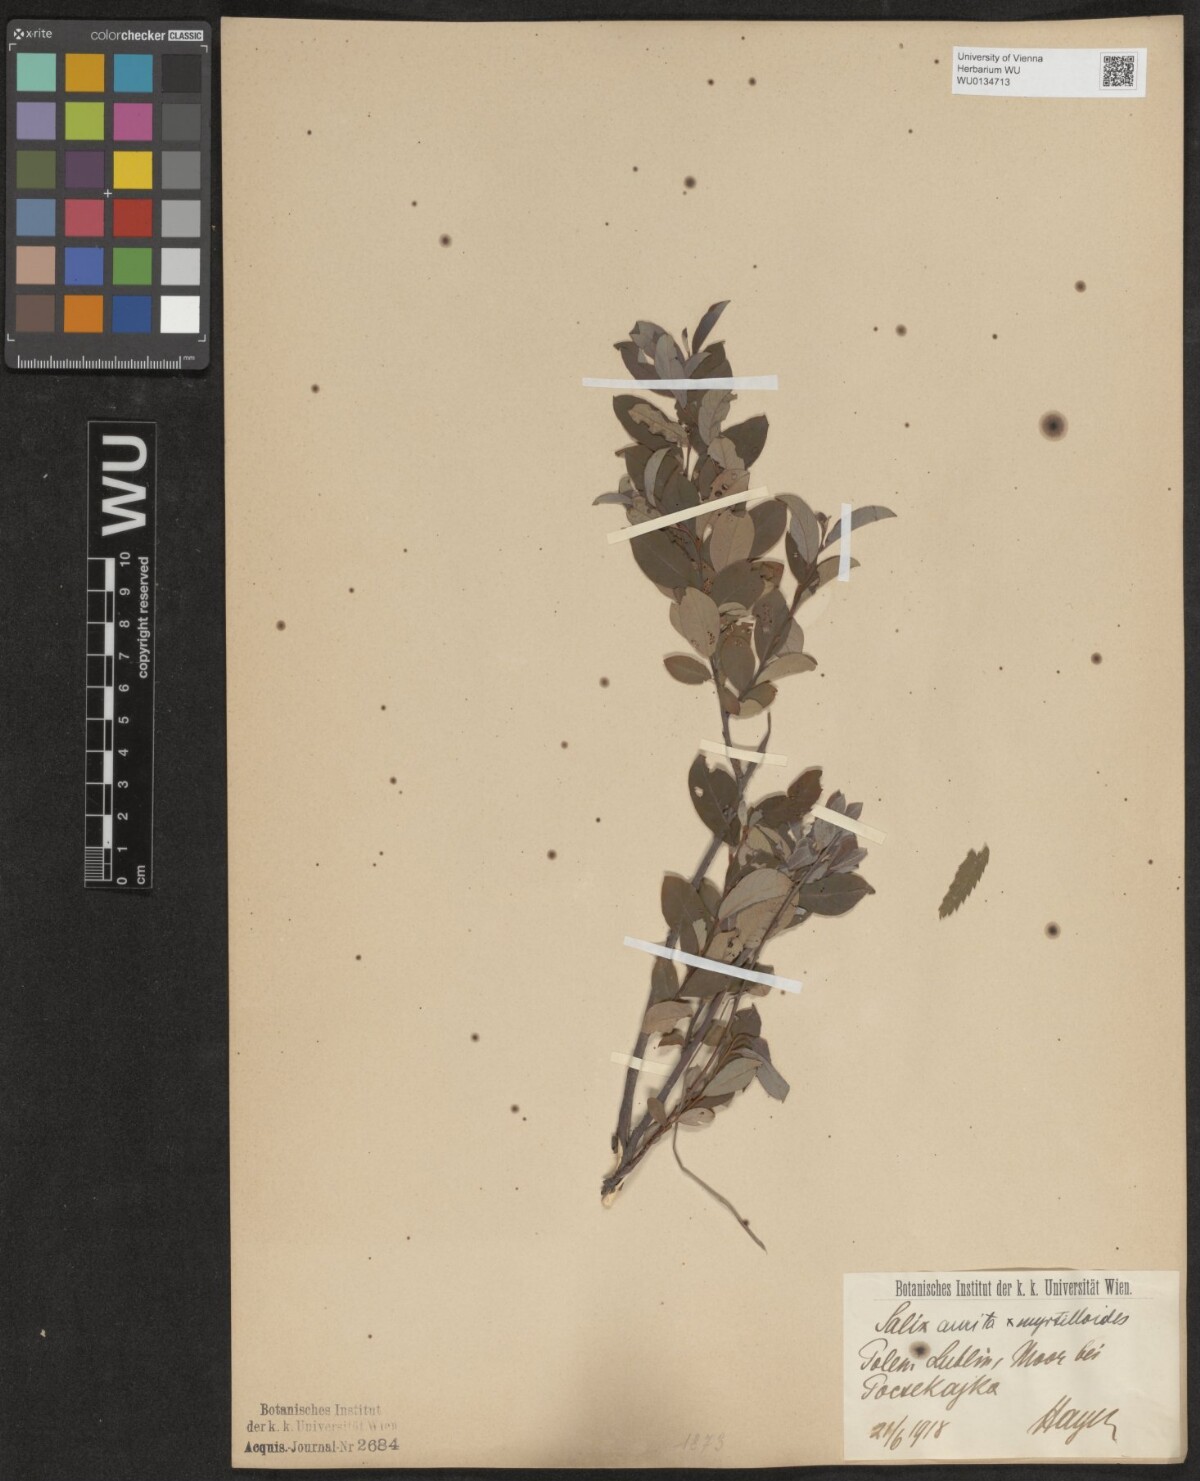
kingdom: Plantae
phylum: Tracheophyta
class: Magnoliopsida
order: Malpighiales
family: Salicaceae
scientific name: Salicaceae
